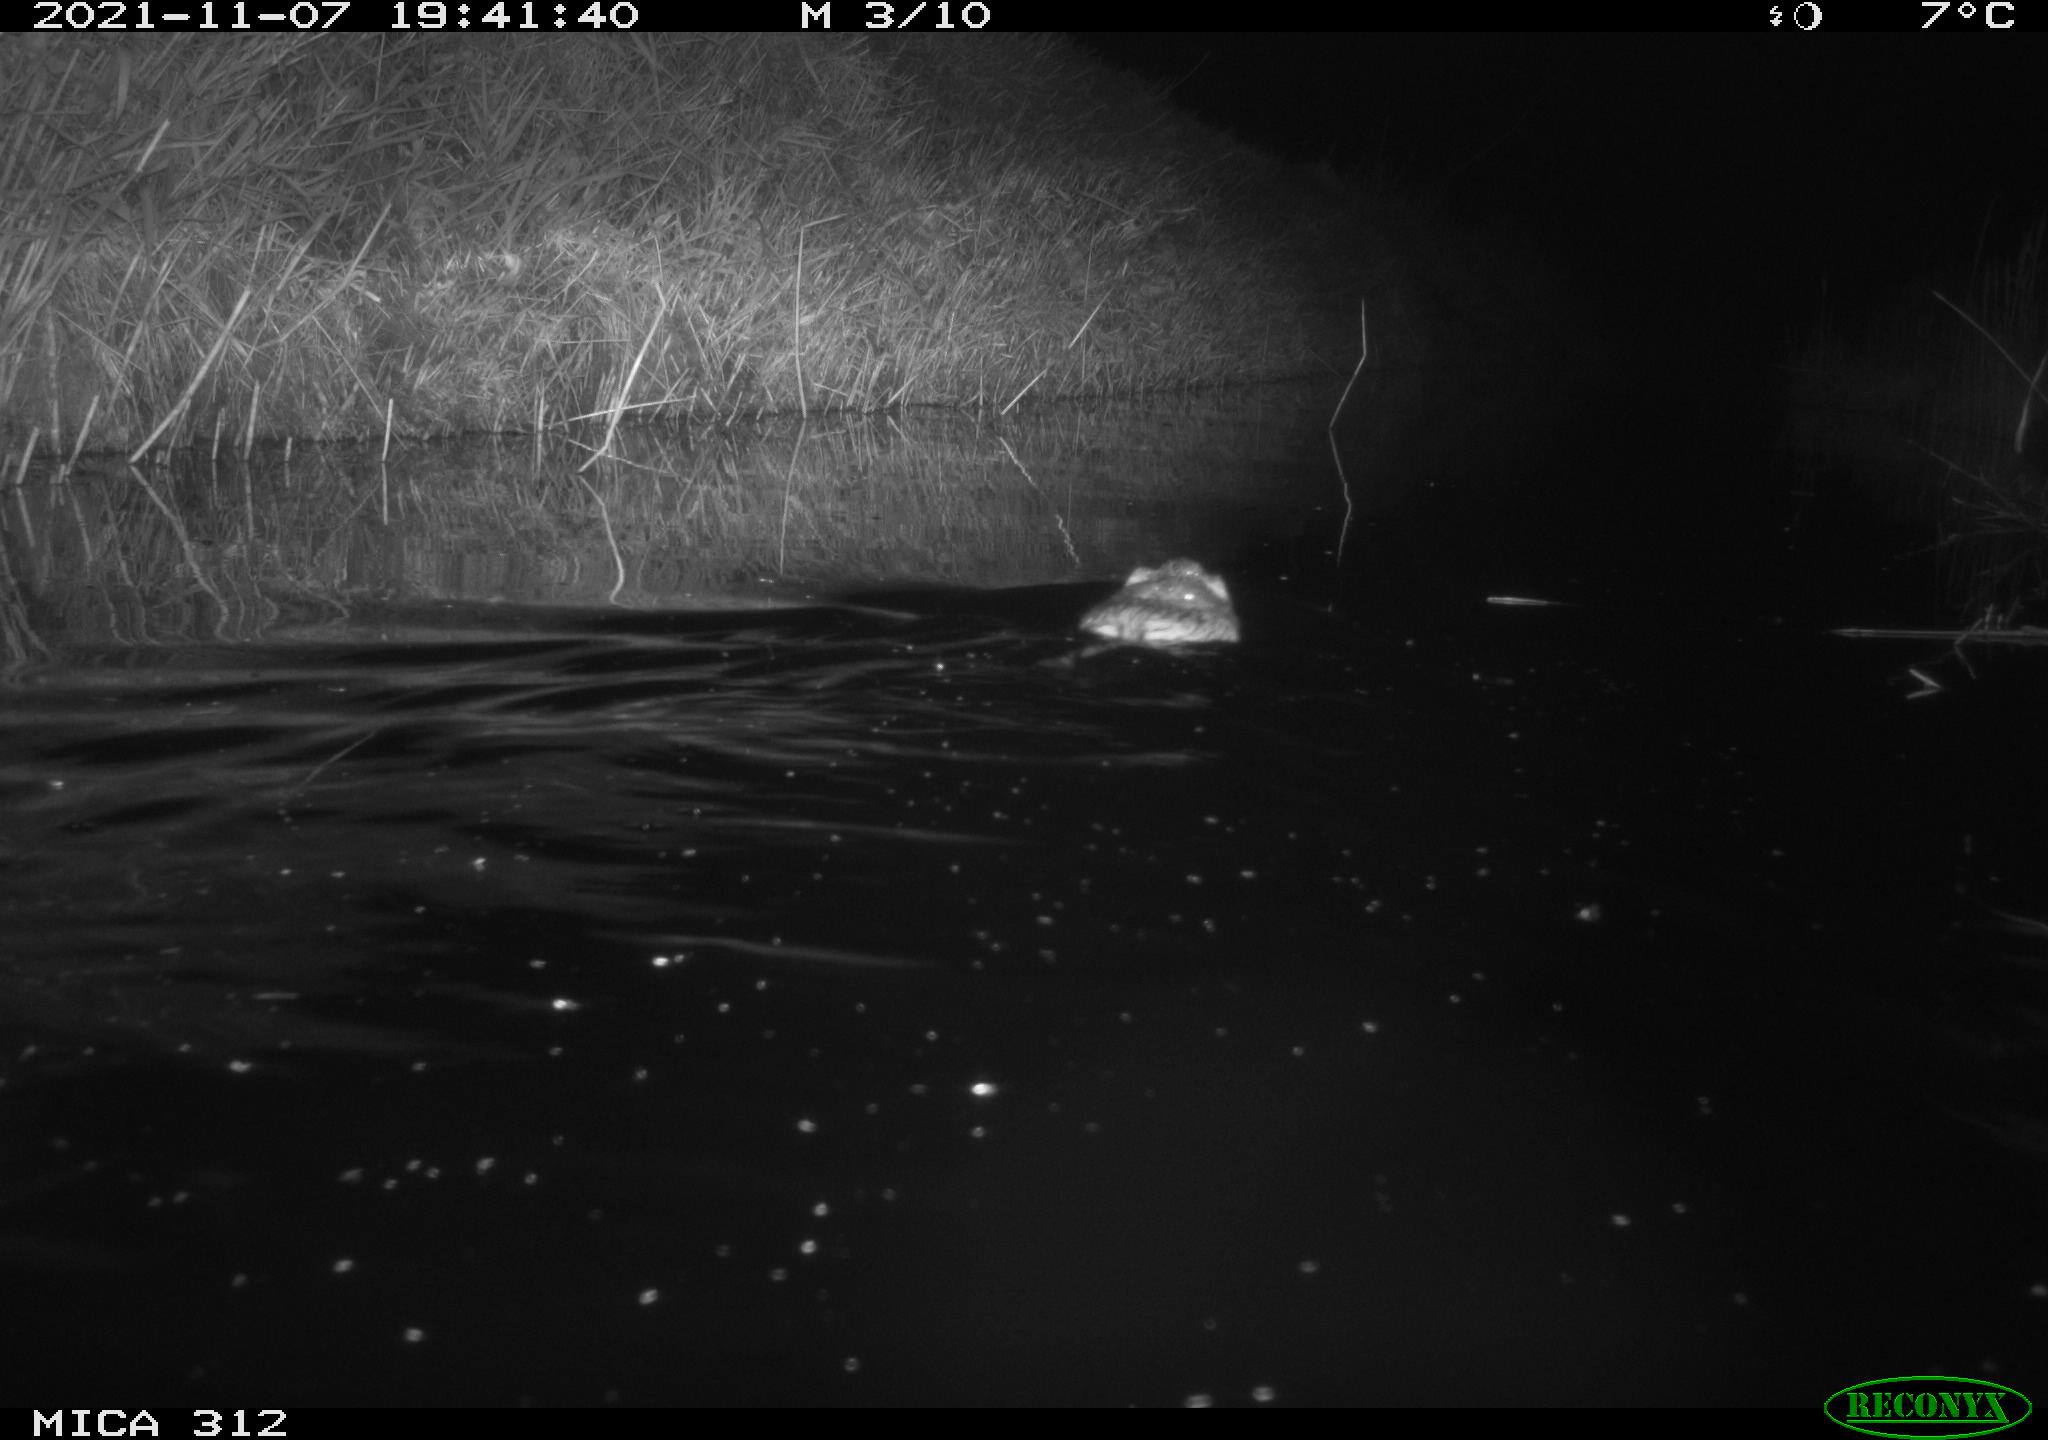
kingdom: Animalia
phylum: Chordata
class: Mammalia
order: Rodentia
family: Cricetidae
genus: Ondatra
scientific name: Ondatra zibethicus
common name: Muskrat
